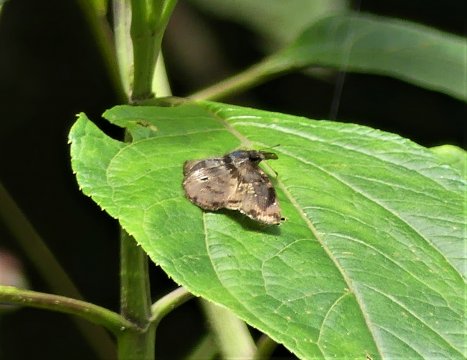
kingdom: Animalia
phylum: Arthropoda
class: Insecta
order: Lepidoptera
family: Hesperiidae
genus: Zera
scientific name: Zera zera
